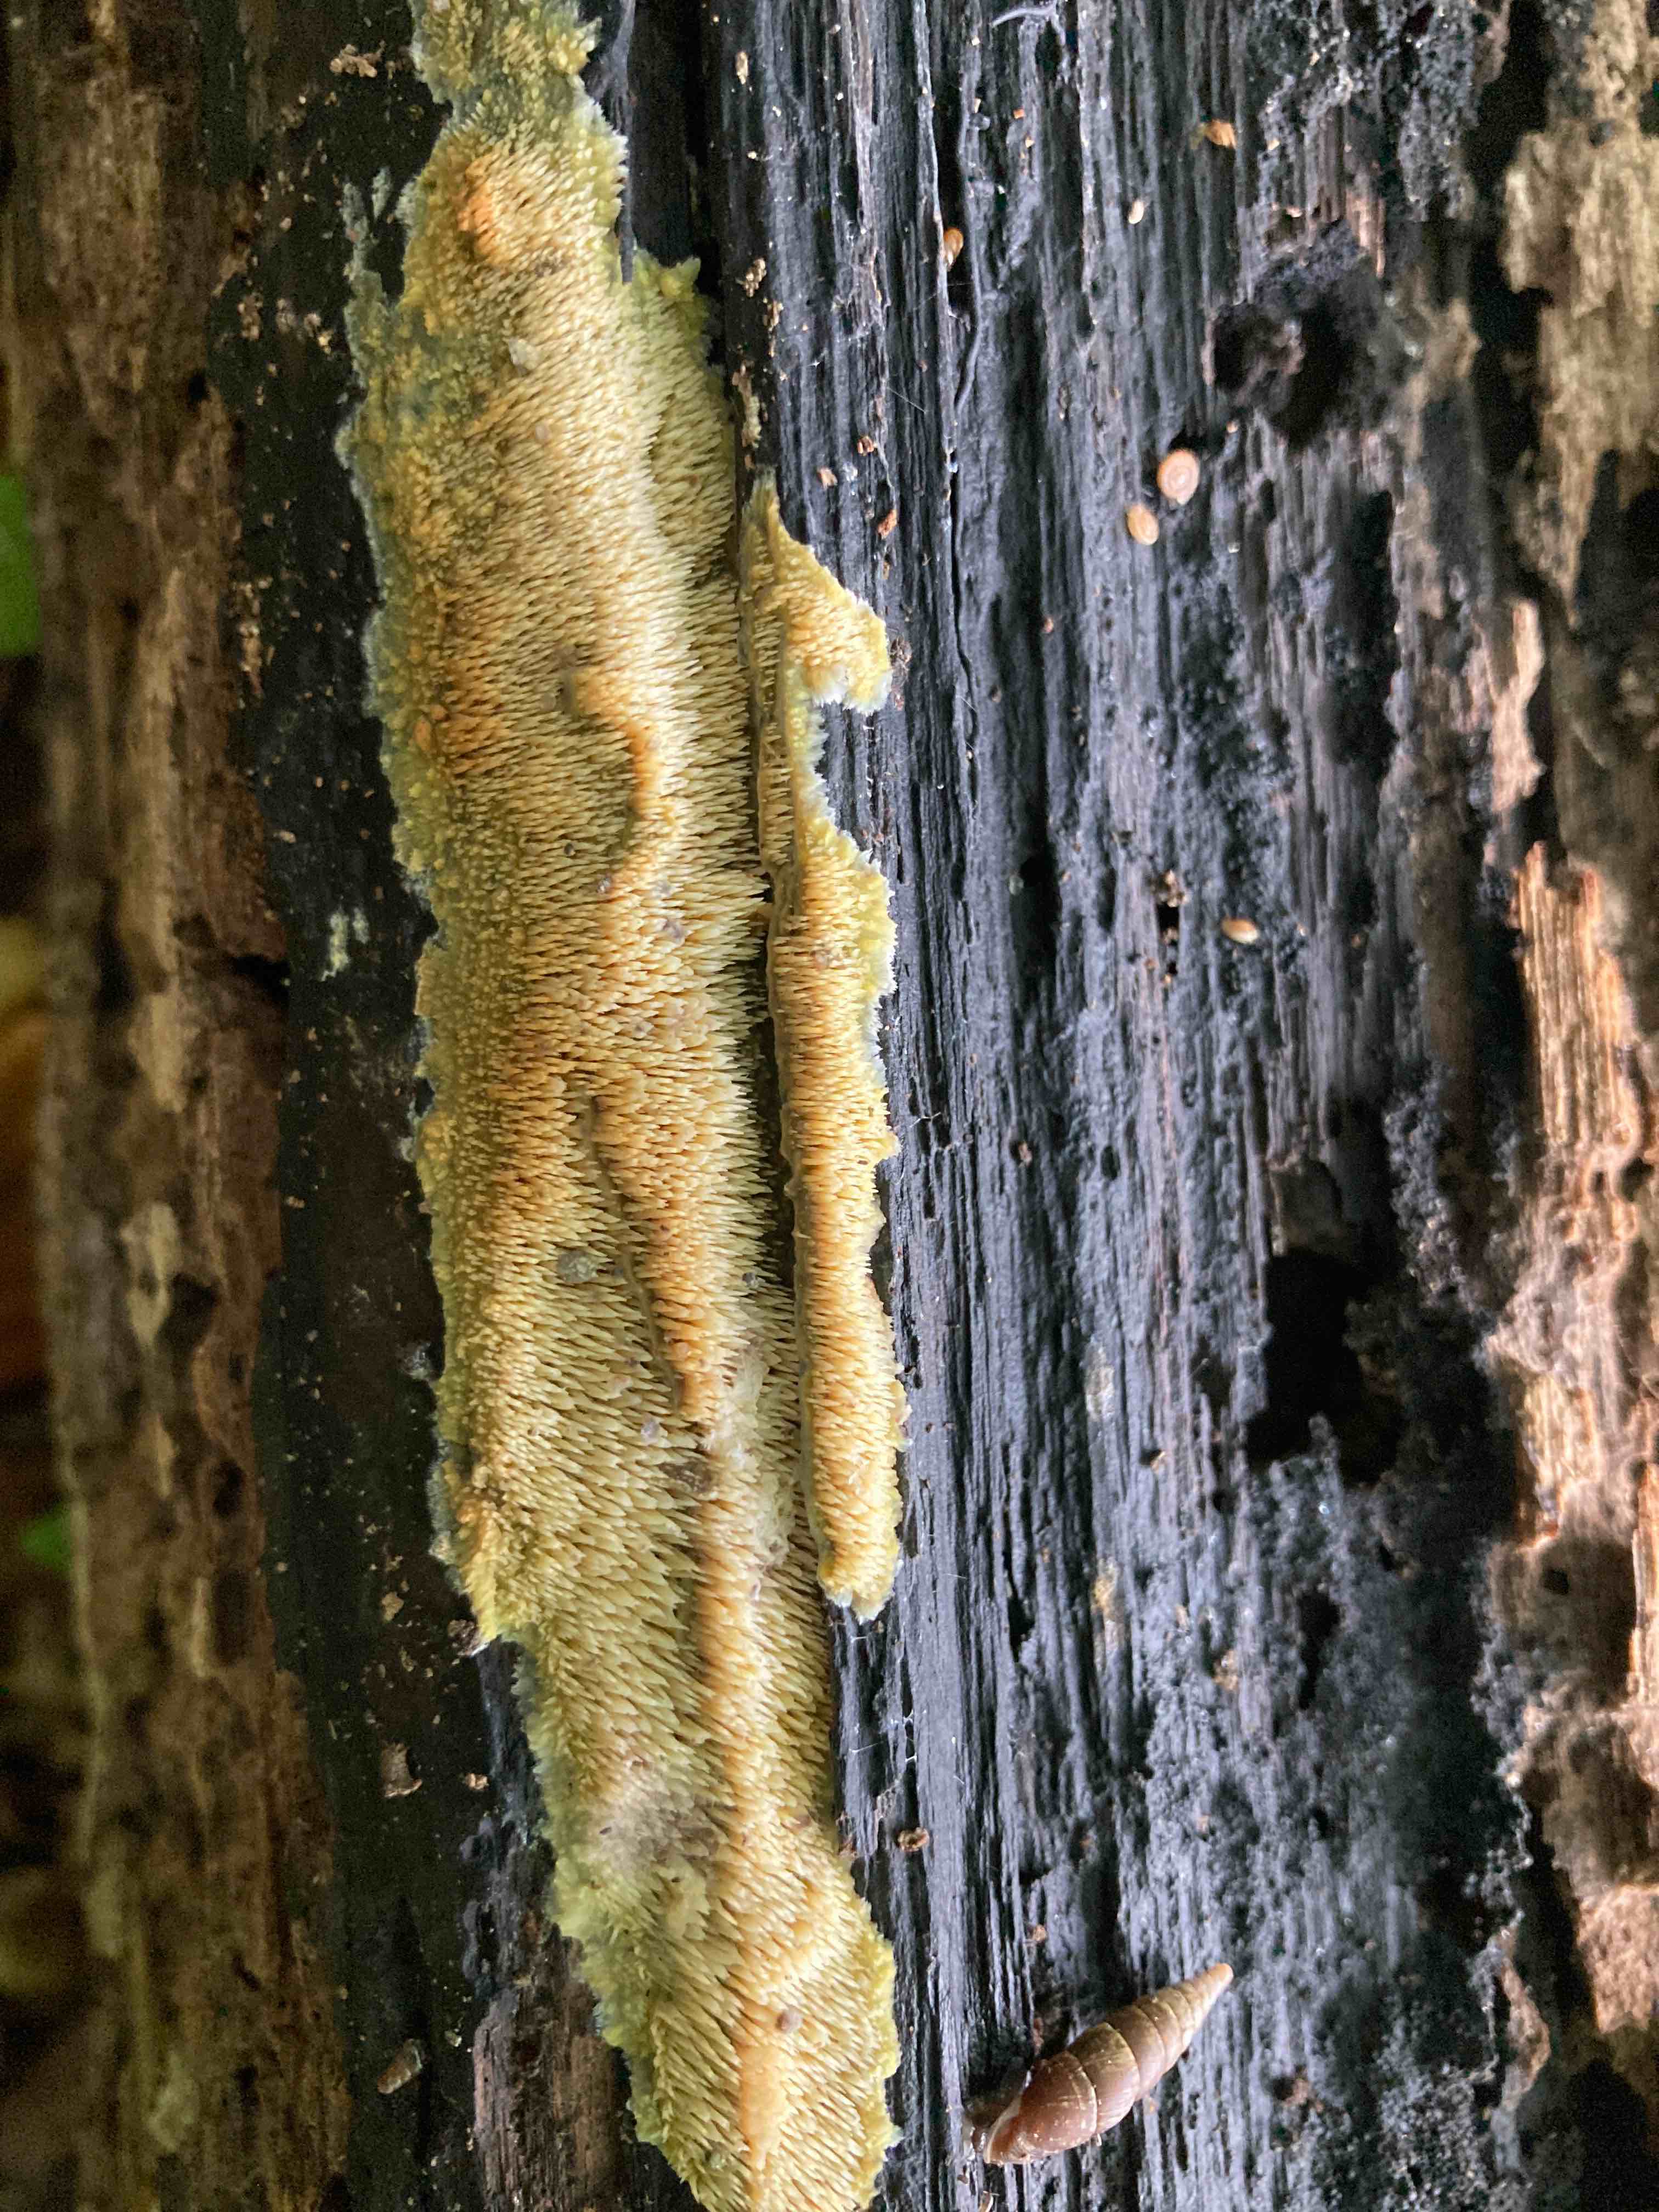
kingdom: Fungi
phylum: Basidiomycota
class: Agaricomycetes
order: Polyporales
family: Meruliaceae
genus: Mycoacia
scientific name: Mycoacia uda
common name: citrongul vokspig
